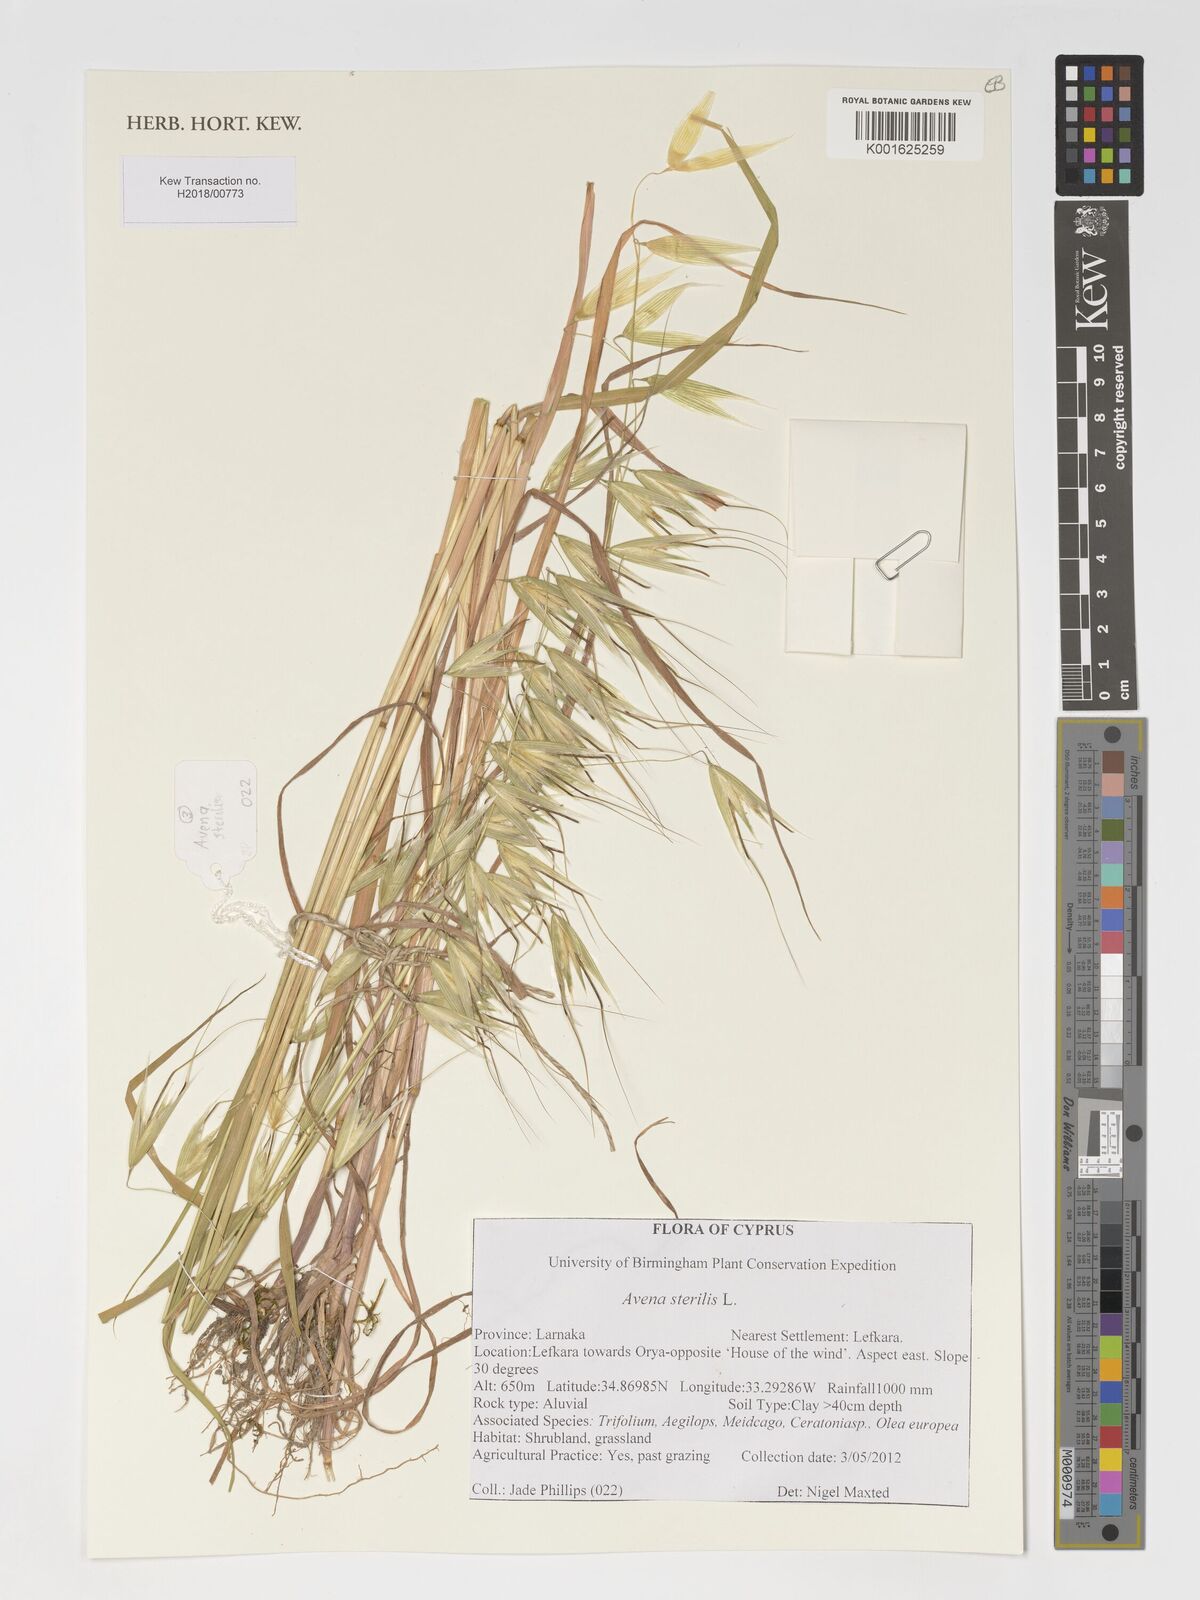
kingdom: Plantae
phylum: Tracheophyta
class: Liliopsida
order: Poales
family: Poaceae
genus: Avena
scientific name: Avena sterilis
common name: Animated oat
